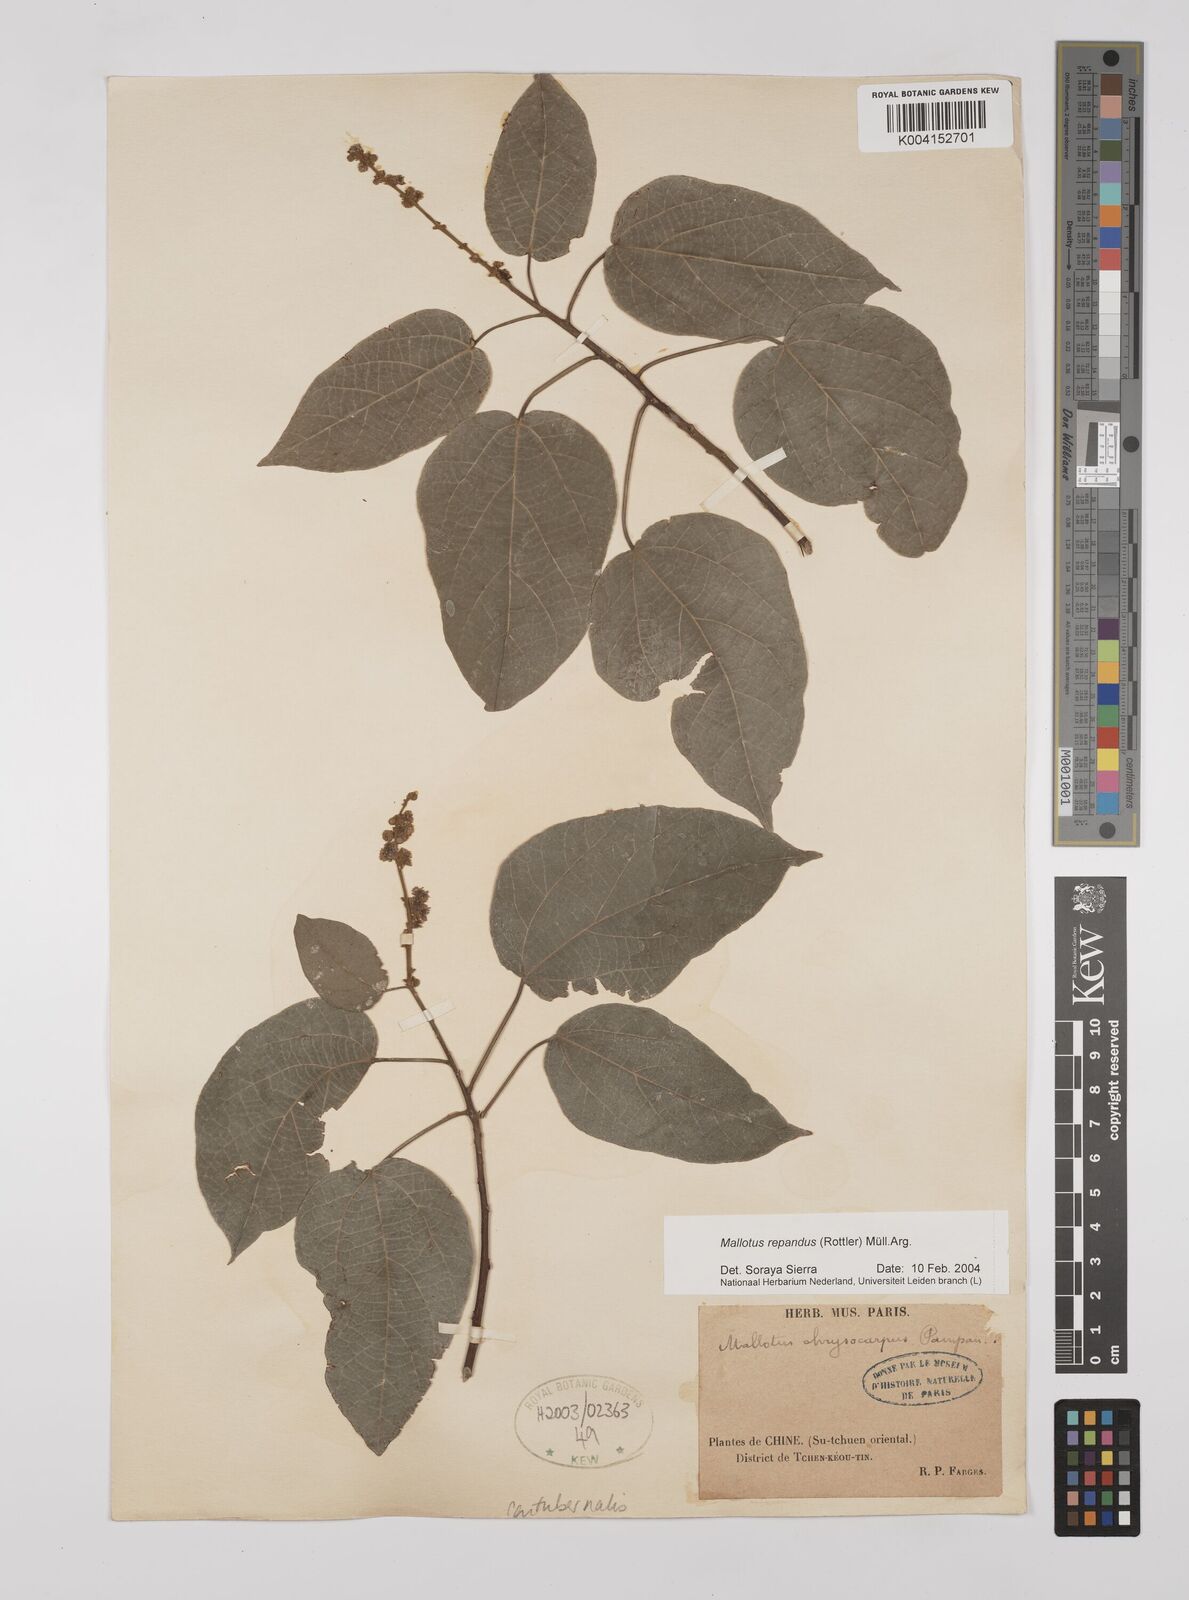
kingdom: Plantae
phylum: Tracheophyta
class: Magnoliopsida
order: Malpighiales
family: Euphorbiaceae
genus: Mallotus
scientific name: Mallotus repandus
